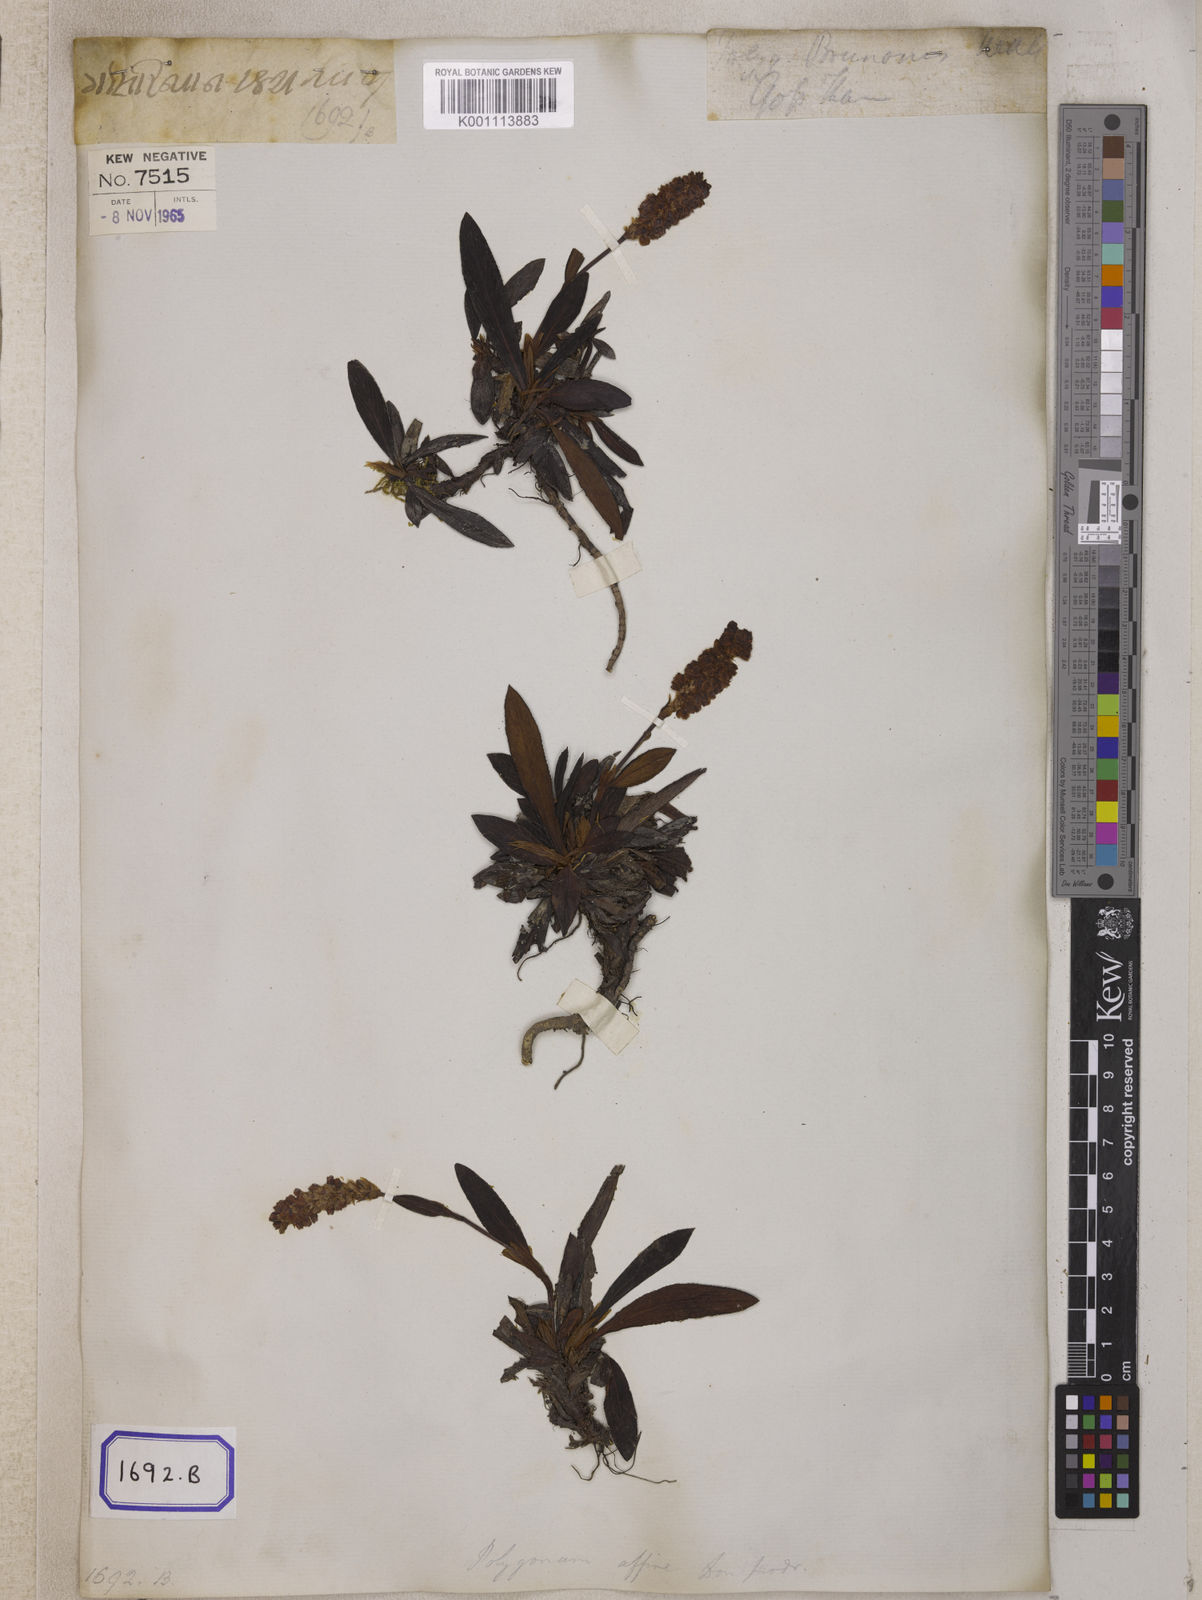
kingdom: Plantae
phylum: Tracheophyta
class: Magnoliopsida
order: Caryophyllales
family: Polygonaceae
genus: Polygonum
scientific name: Polygonum
